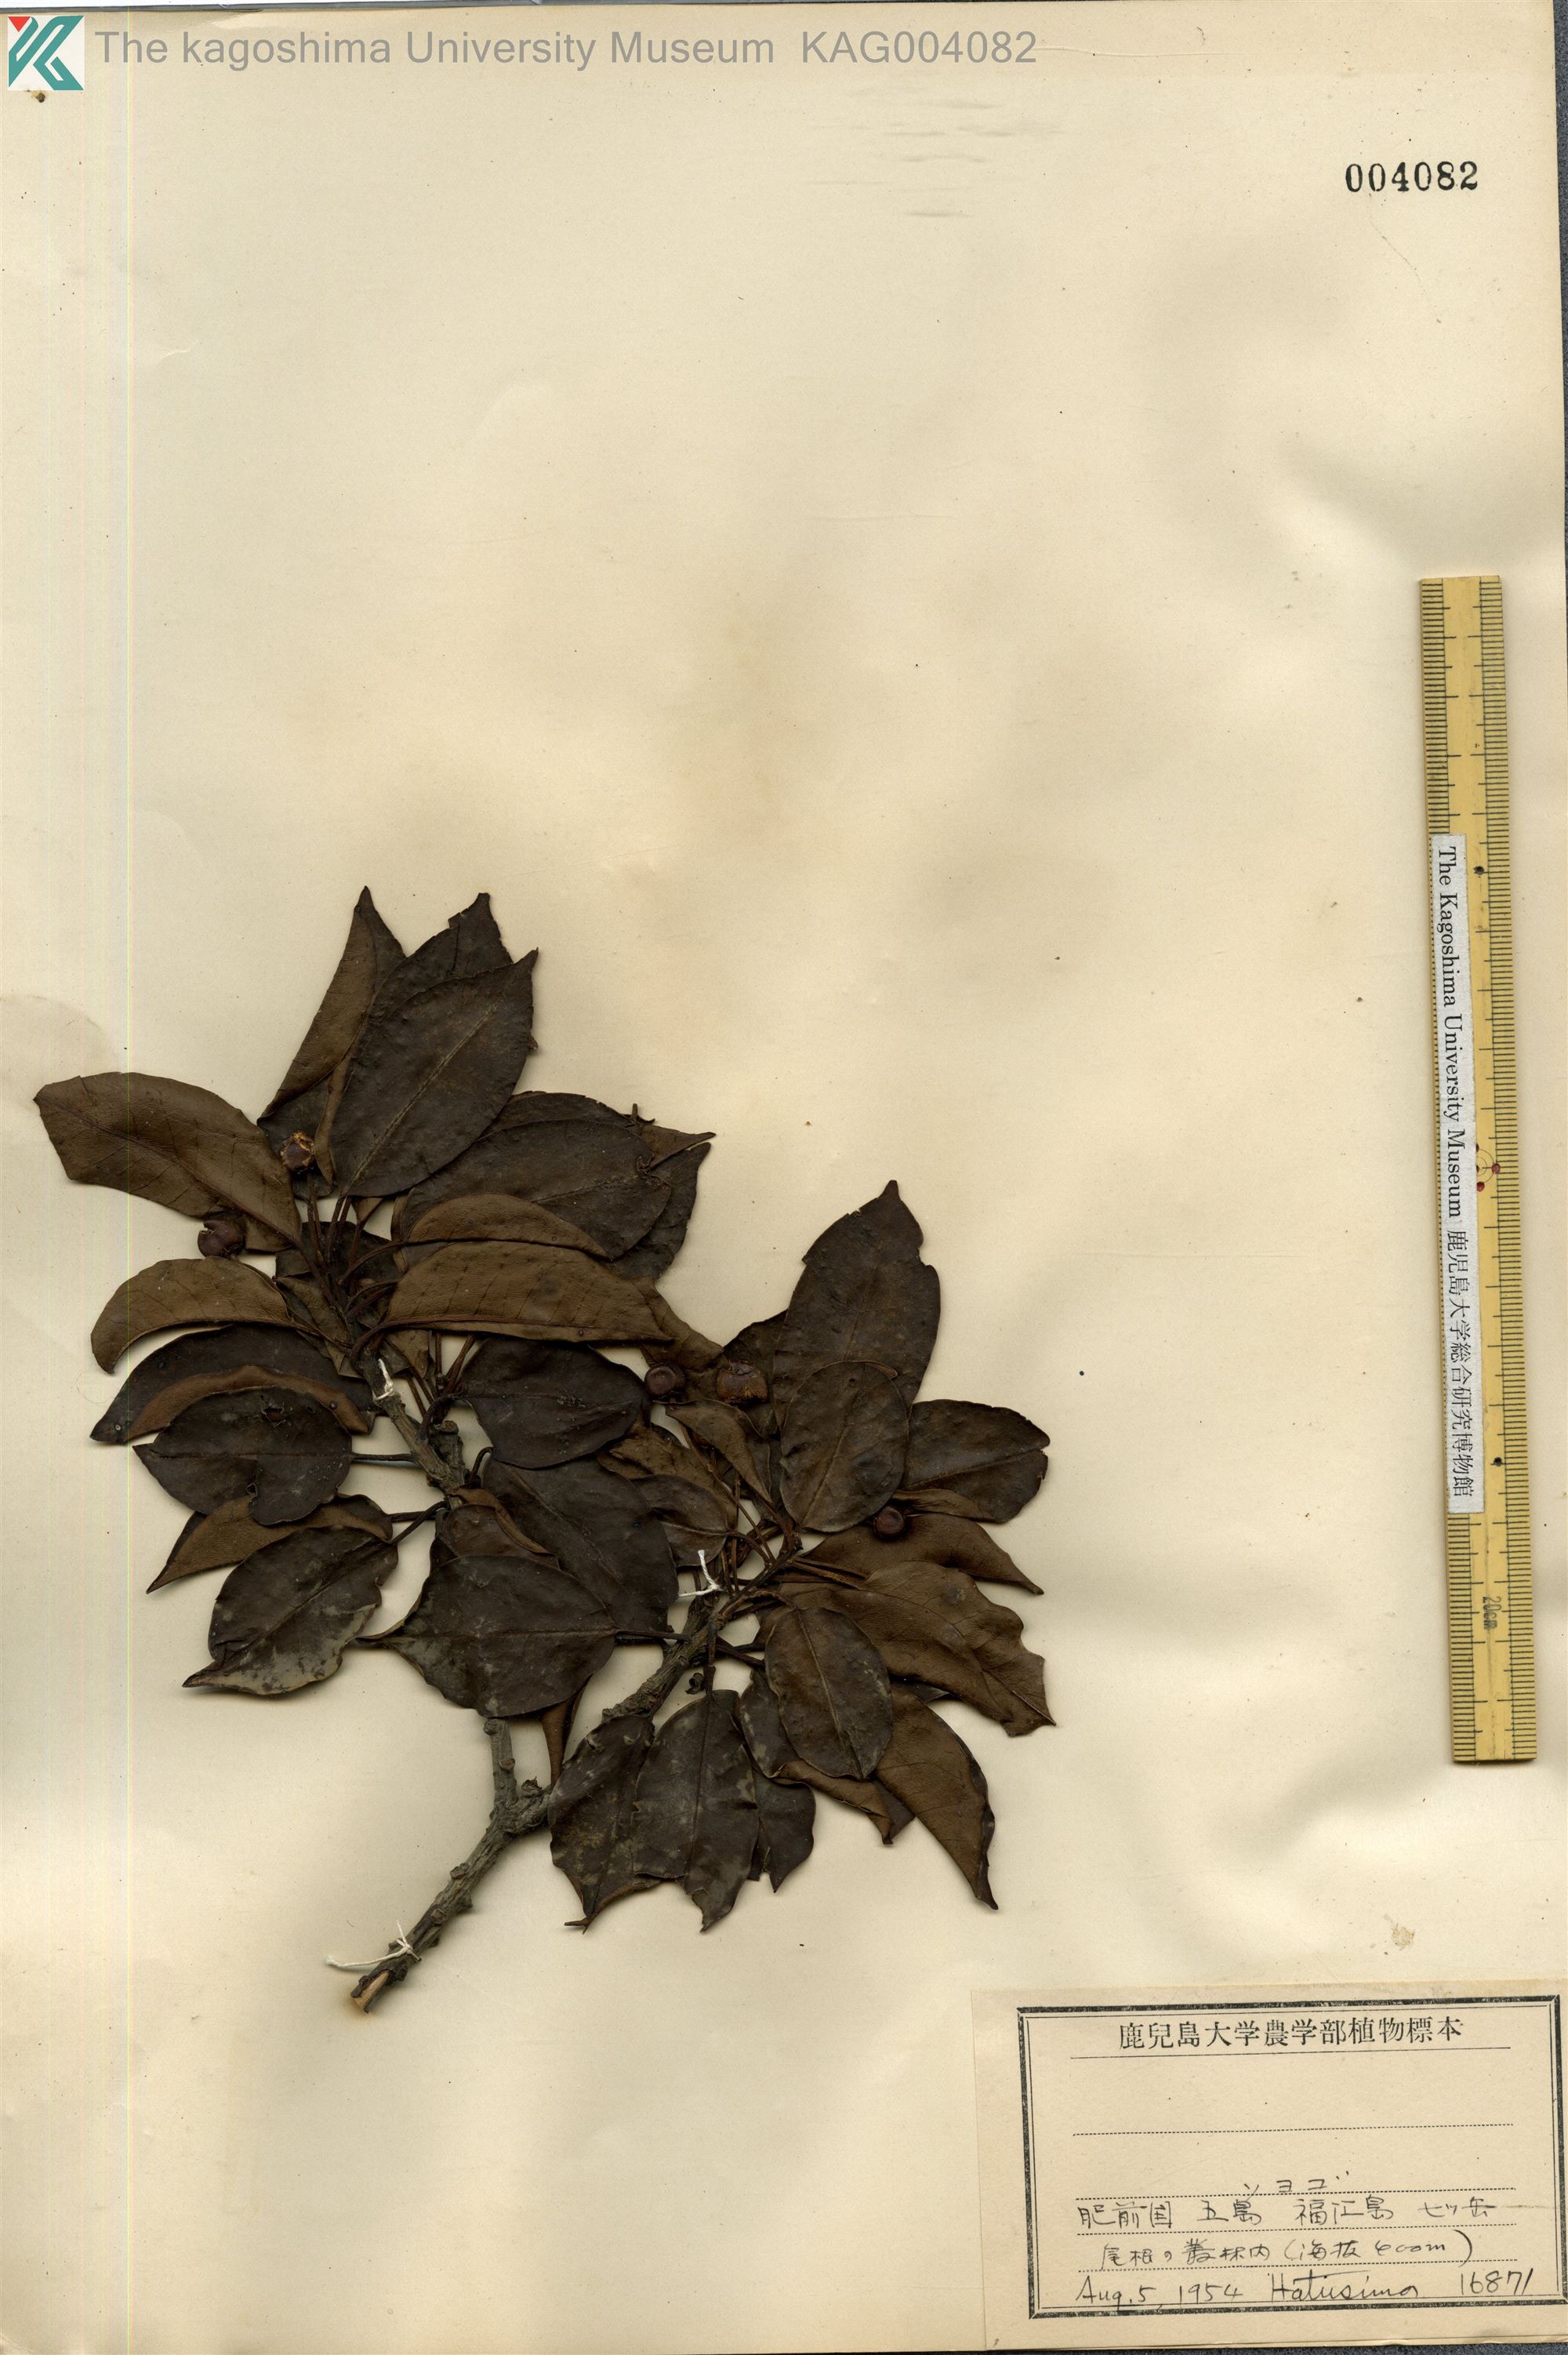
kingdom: Plantae
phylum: Tracheophyta
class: Magnoliopsida
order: Aquifoliales
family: Aquifoliaceae
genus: Ilex
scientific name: Ilex pedunculosa
